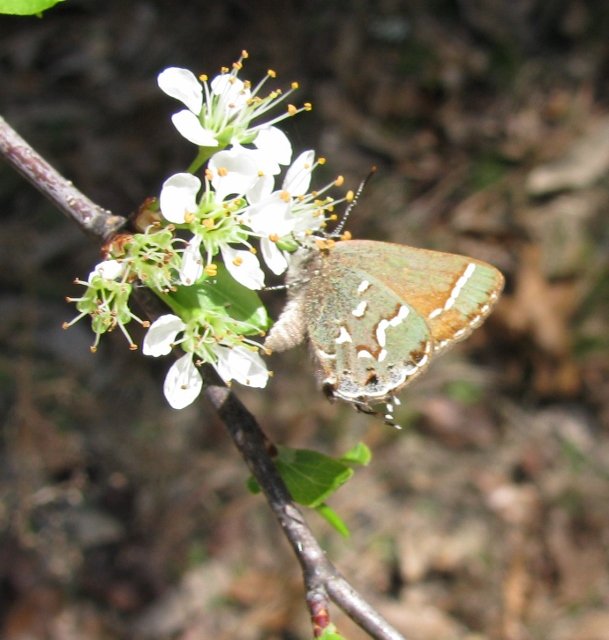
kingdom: Animalia
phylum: Arthropoda
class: Insecta
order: Lepidoptera
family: Lycaenidae
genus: Mitoura
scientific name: Mitoura gryneus
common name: Juniper Hairstreak
